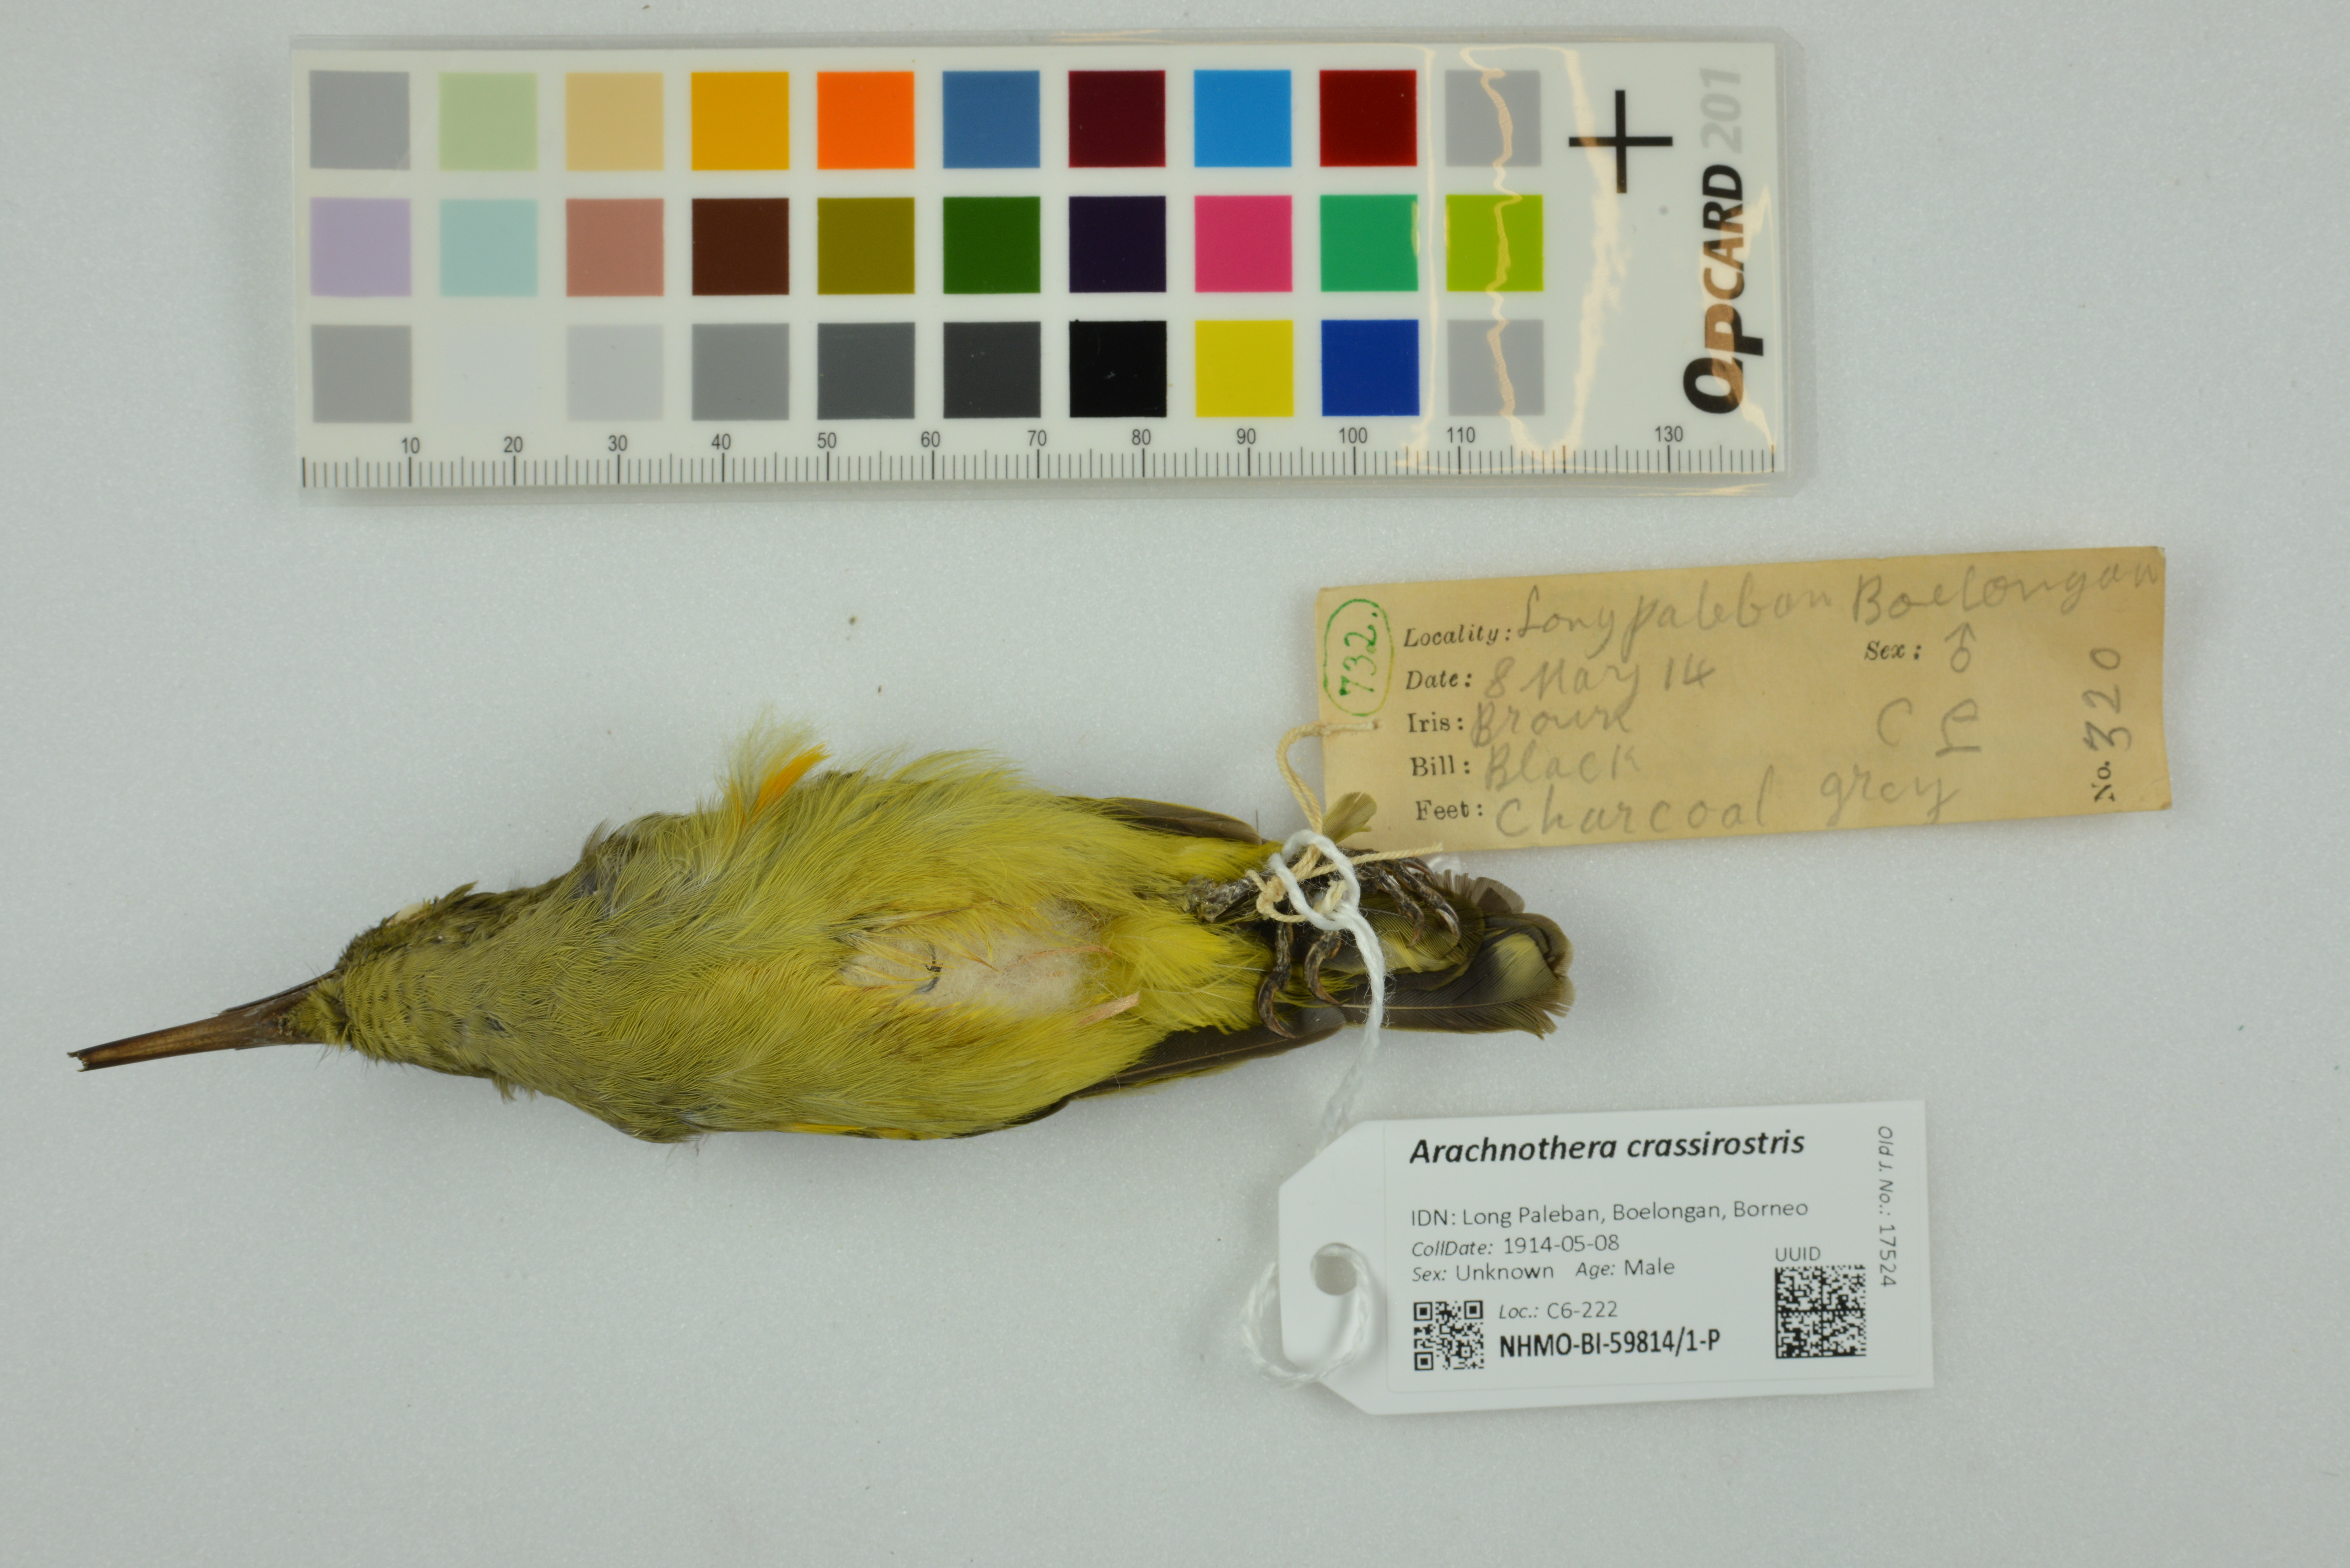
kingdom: Animalia
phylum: Chordata
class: Aves
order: Passeriformes
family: Nectariniidae
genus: Arachnothera
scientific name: Arachnothera crassirostris
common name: Thick-billed spiderhunter
